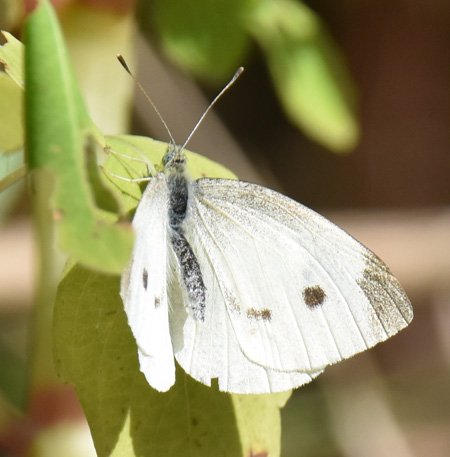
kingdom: Animalia
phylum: Arthropoda
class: Insecta
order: Lepidoptera
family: Pieridae
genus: Pieris
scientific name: Pieris rapae
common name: Cabbage White
